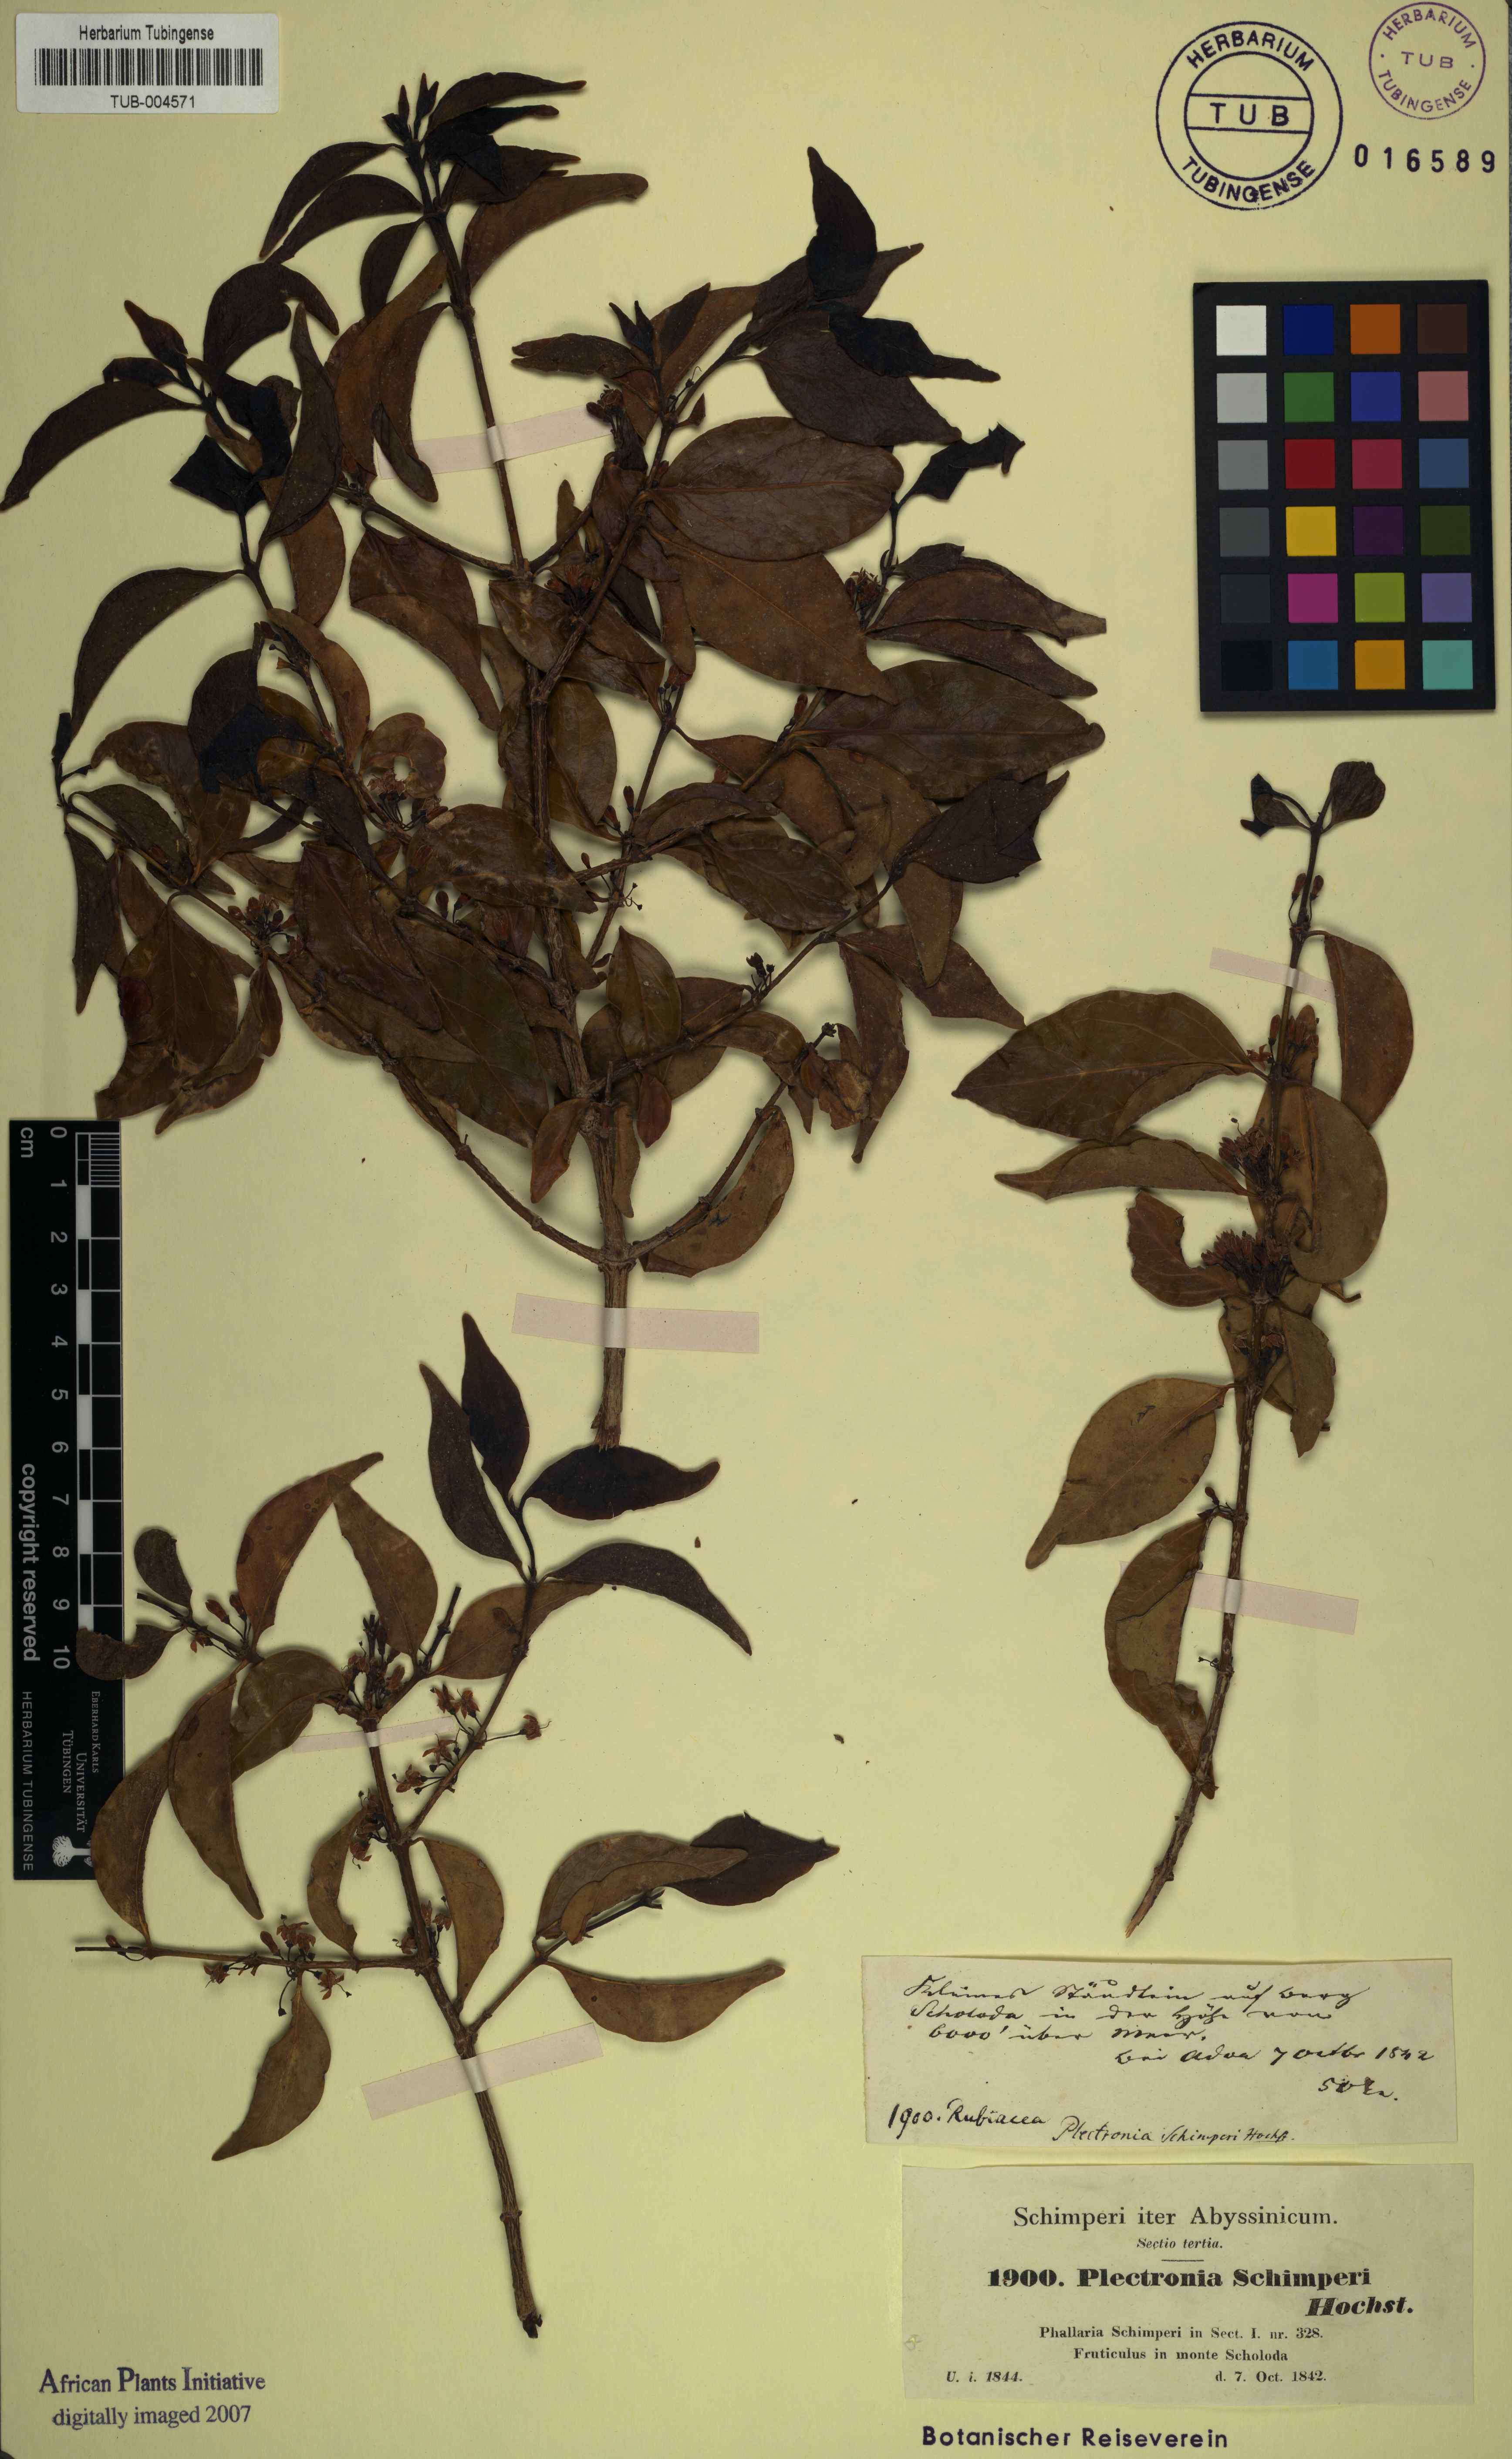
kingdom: Plantae
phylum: Tracheophyta
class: Magnoliopsida
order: Myrtales
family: Penaeaceae
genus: Olinia
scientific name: Olinia Plectronia schimperi
